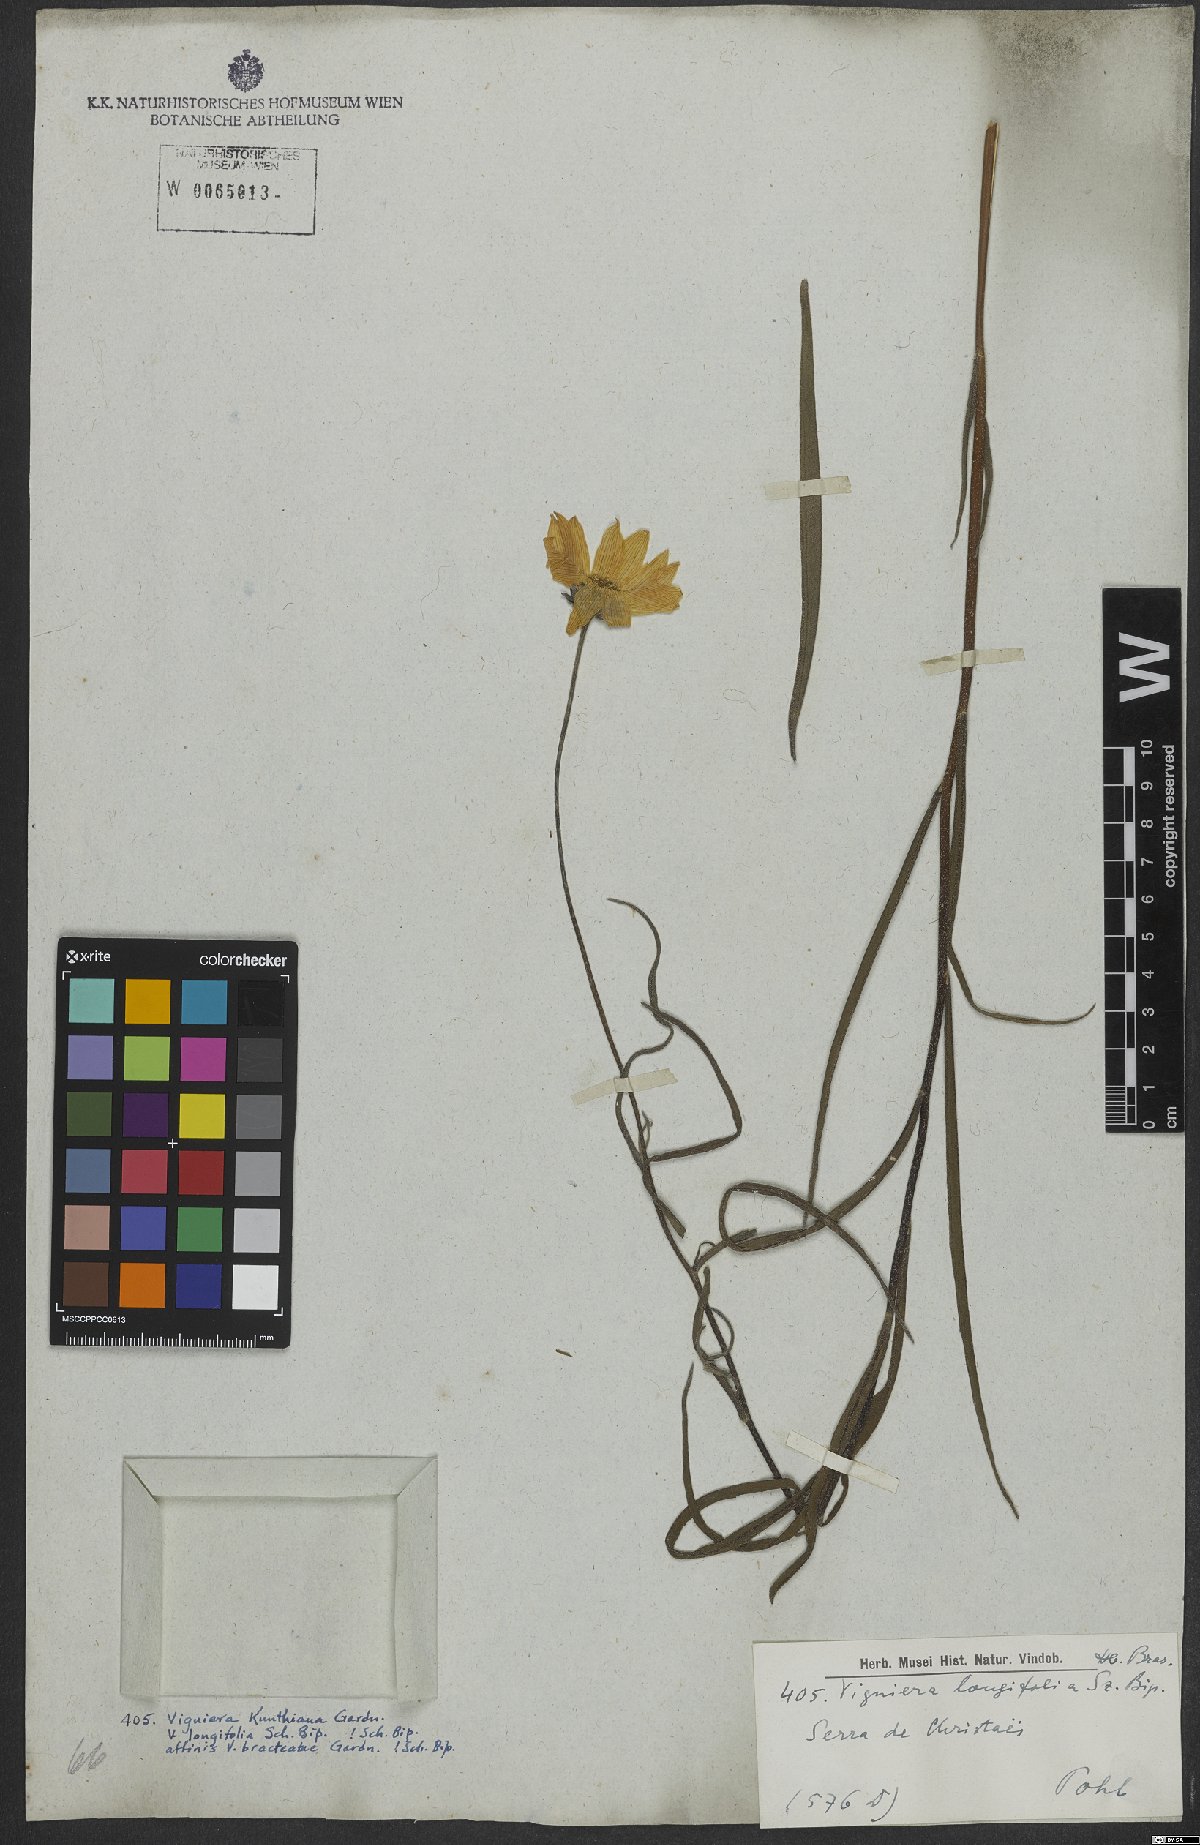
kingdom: Plantae
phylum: Tracheophyta
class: Magnoliopsida
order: Asterales
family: Asteraceae
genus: Aldama
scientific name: Aldama kunthiana
